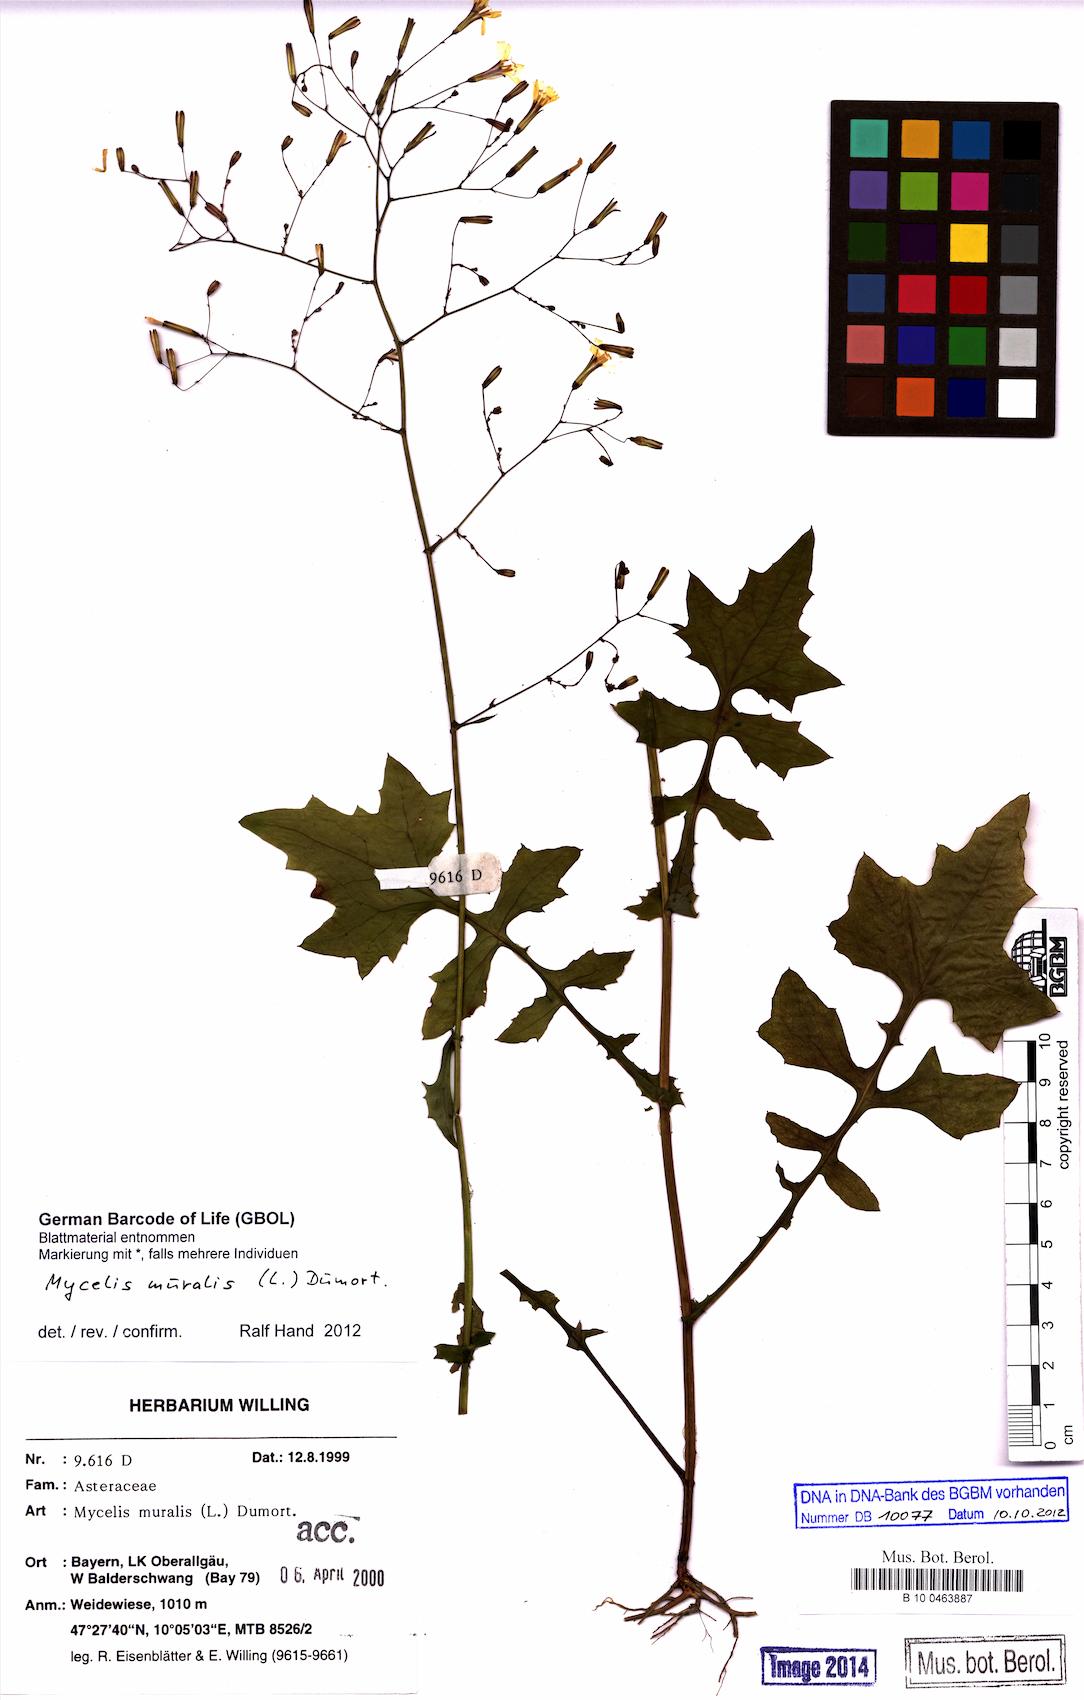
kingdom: Plantae
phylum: Tracheophyta
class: Magnoliopsida
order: Asterales
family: Asteraceae
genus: Mycelis
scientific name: Mycelis muralis
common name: Wall lettuce
